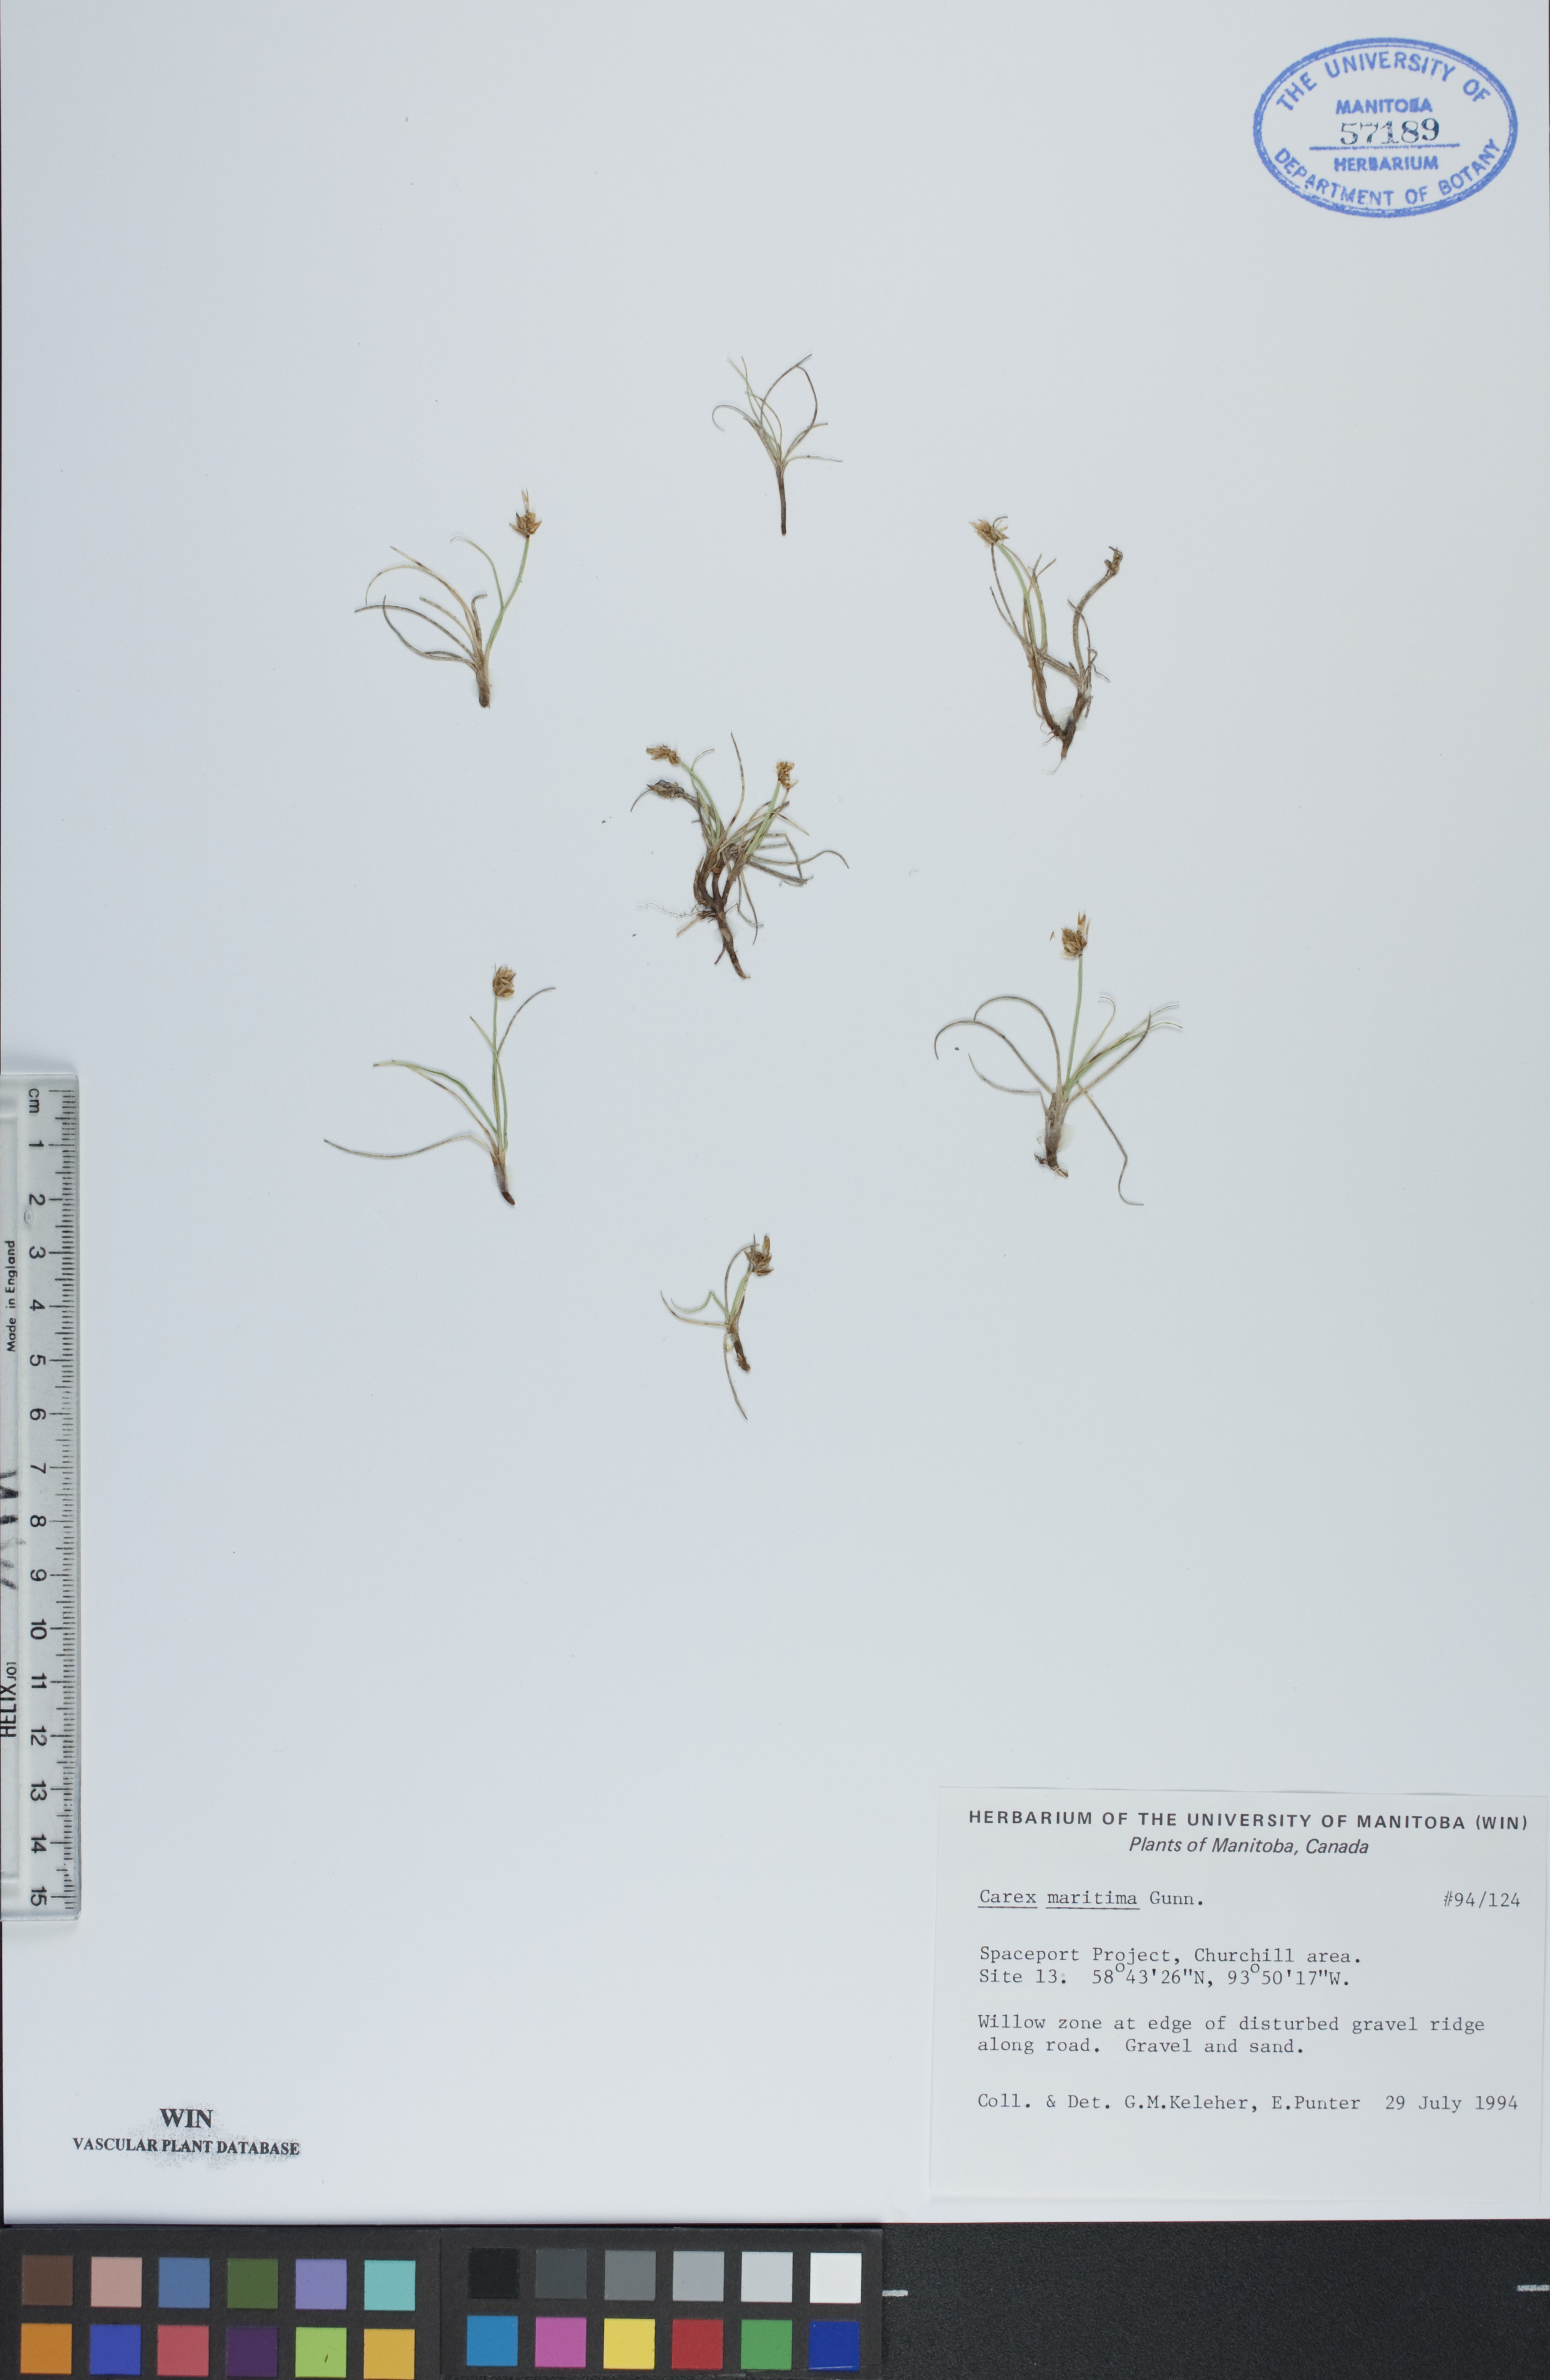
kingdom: Plantae
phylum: Tracheophyta
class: Liliopsida
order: Poales
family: Cyperaceae
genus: Carex
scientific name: Carex maritima
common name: Curved sedge
